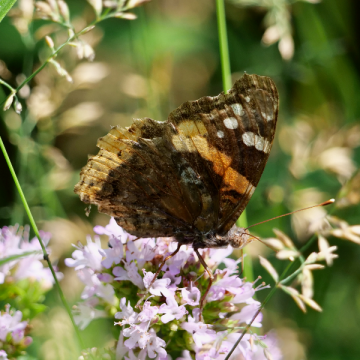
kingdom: Animalia
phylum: Arthropoda
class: Insecta
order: Lepidoptera
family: Nymphalidae
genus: Vanessa
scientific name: Vanessa atalanta
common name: Red Admiral
